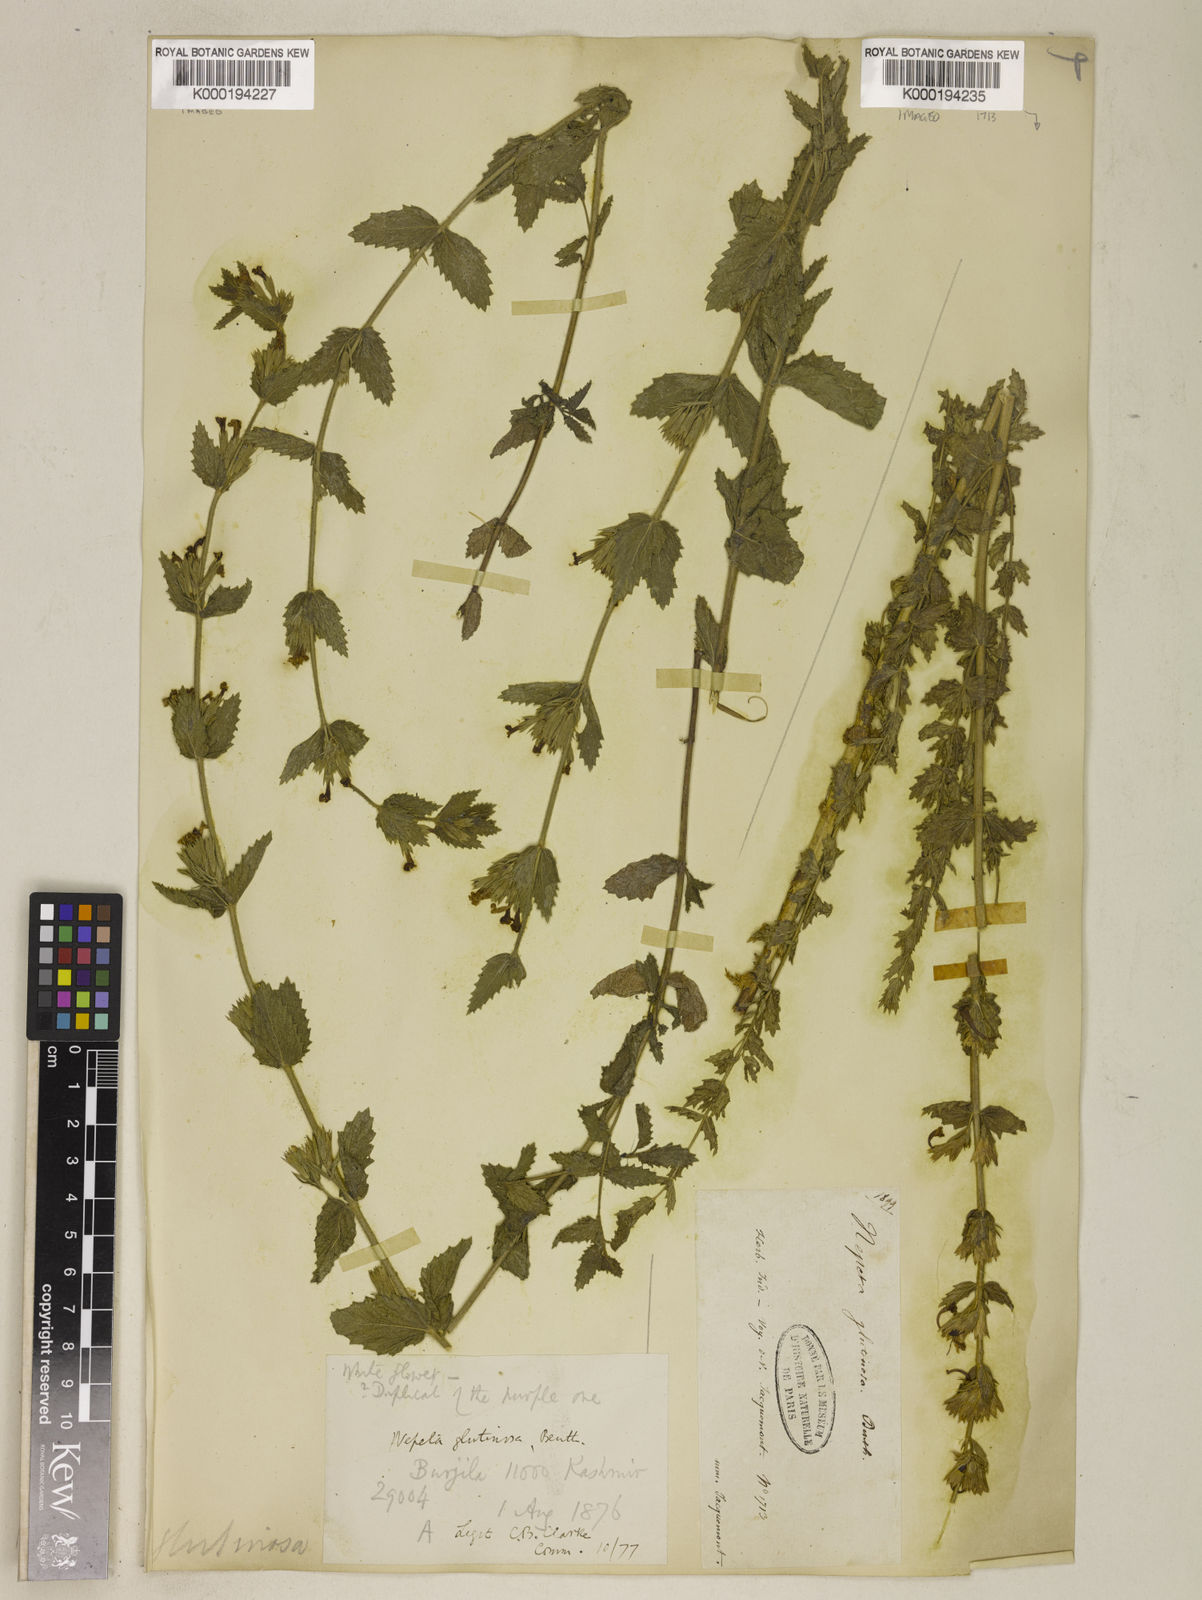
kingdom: Plantae
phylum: Tracheophyta
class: Magnoliopsida
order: Lamiales
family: Lamiaceae
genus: Nepeta
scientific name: Nepeta glutinosa
